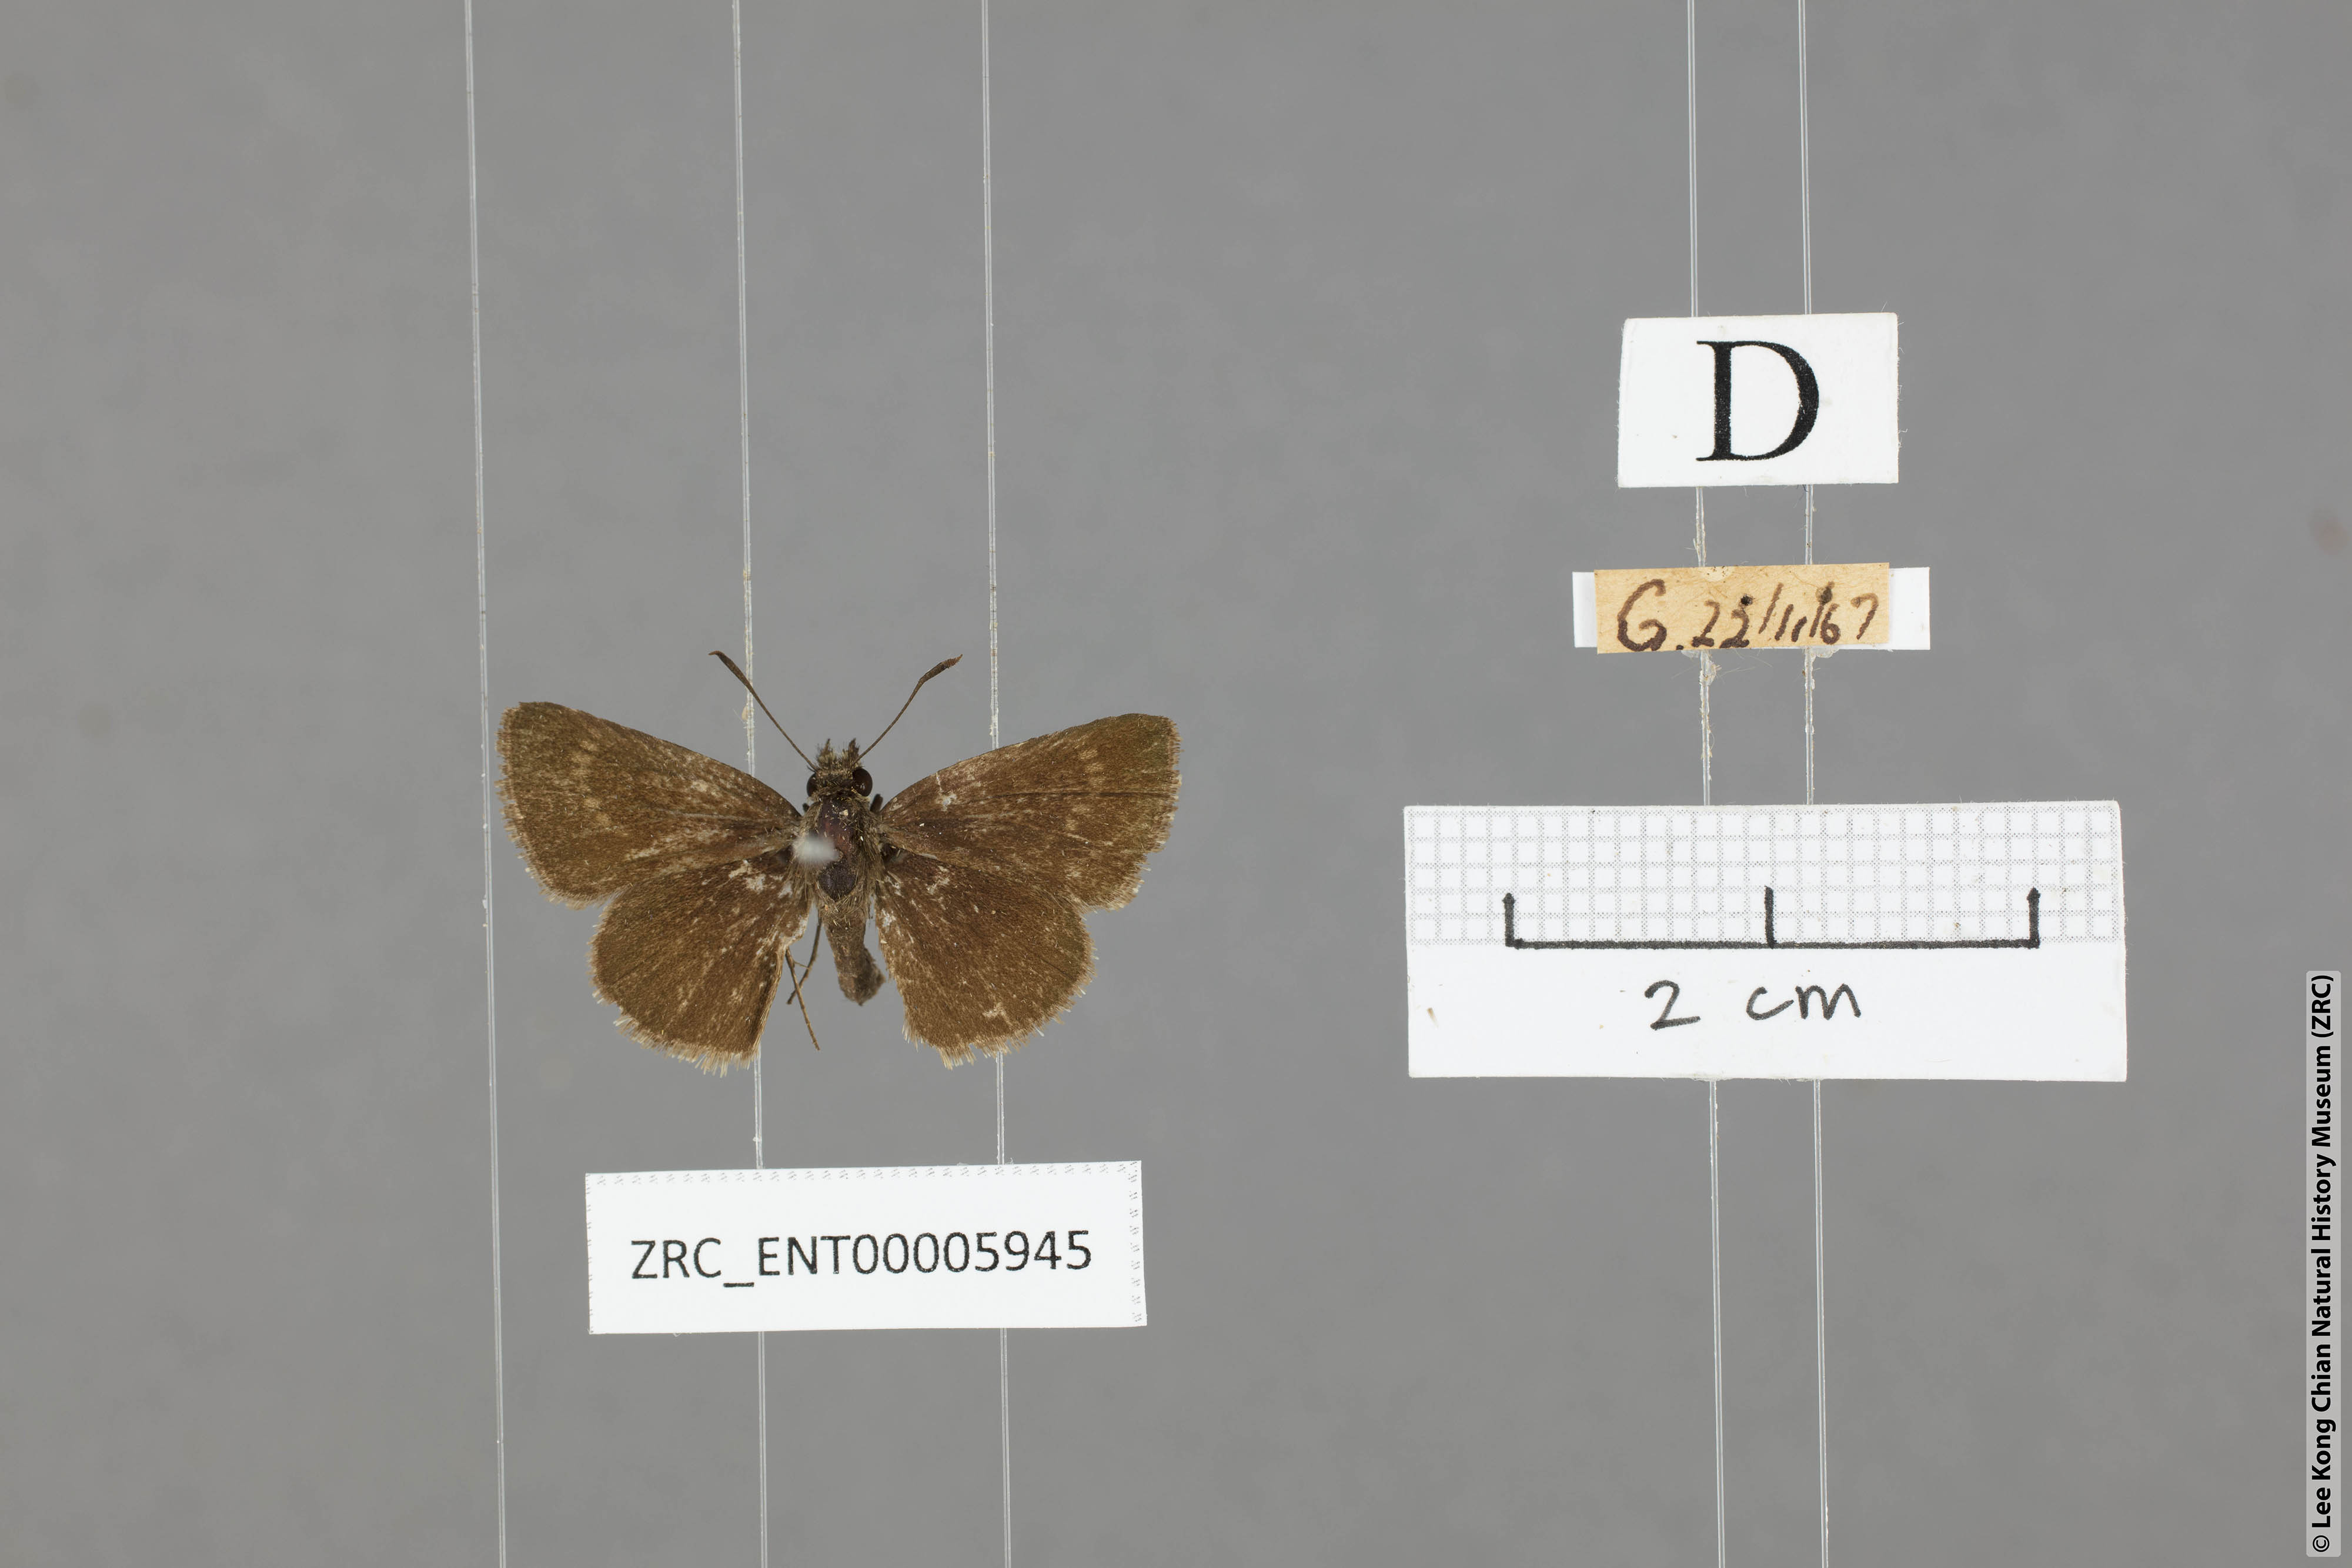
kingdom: Animalia
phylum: Arthropoda
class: Insecta
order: Lepidoptera
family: Hesperiidae
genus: Aeromachus
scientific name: Aeromachus jhora
